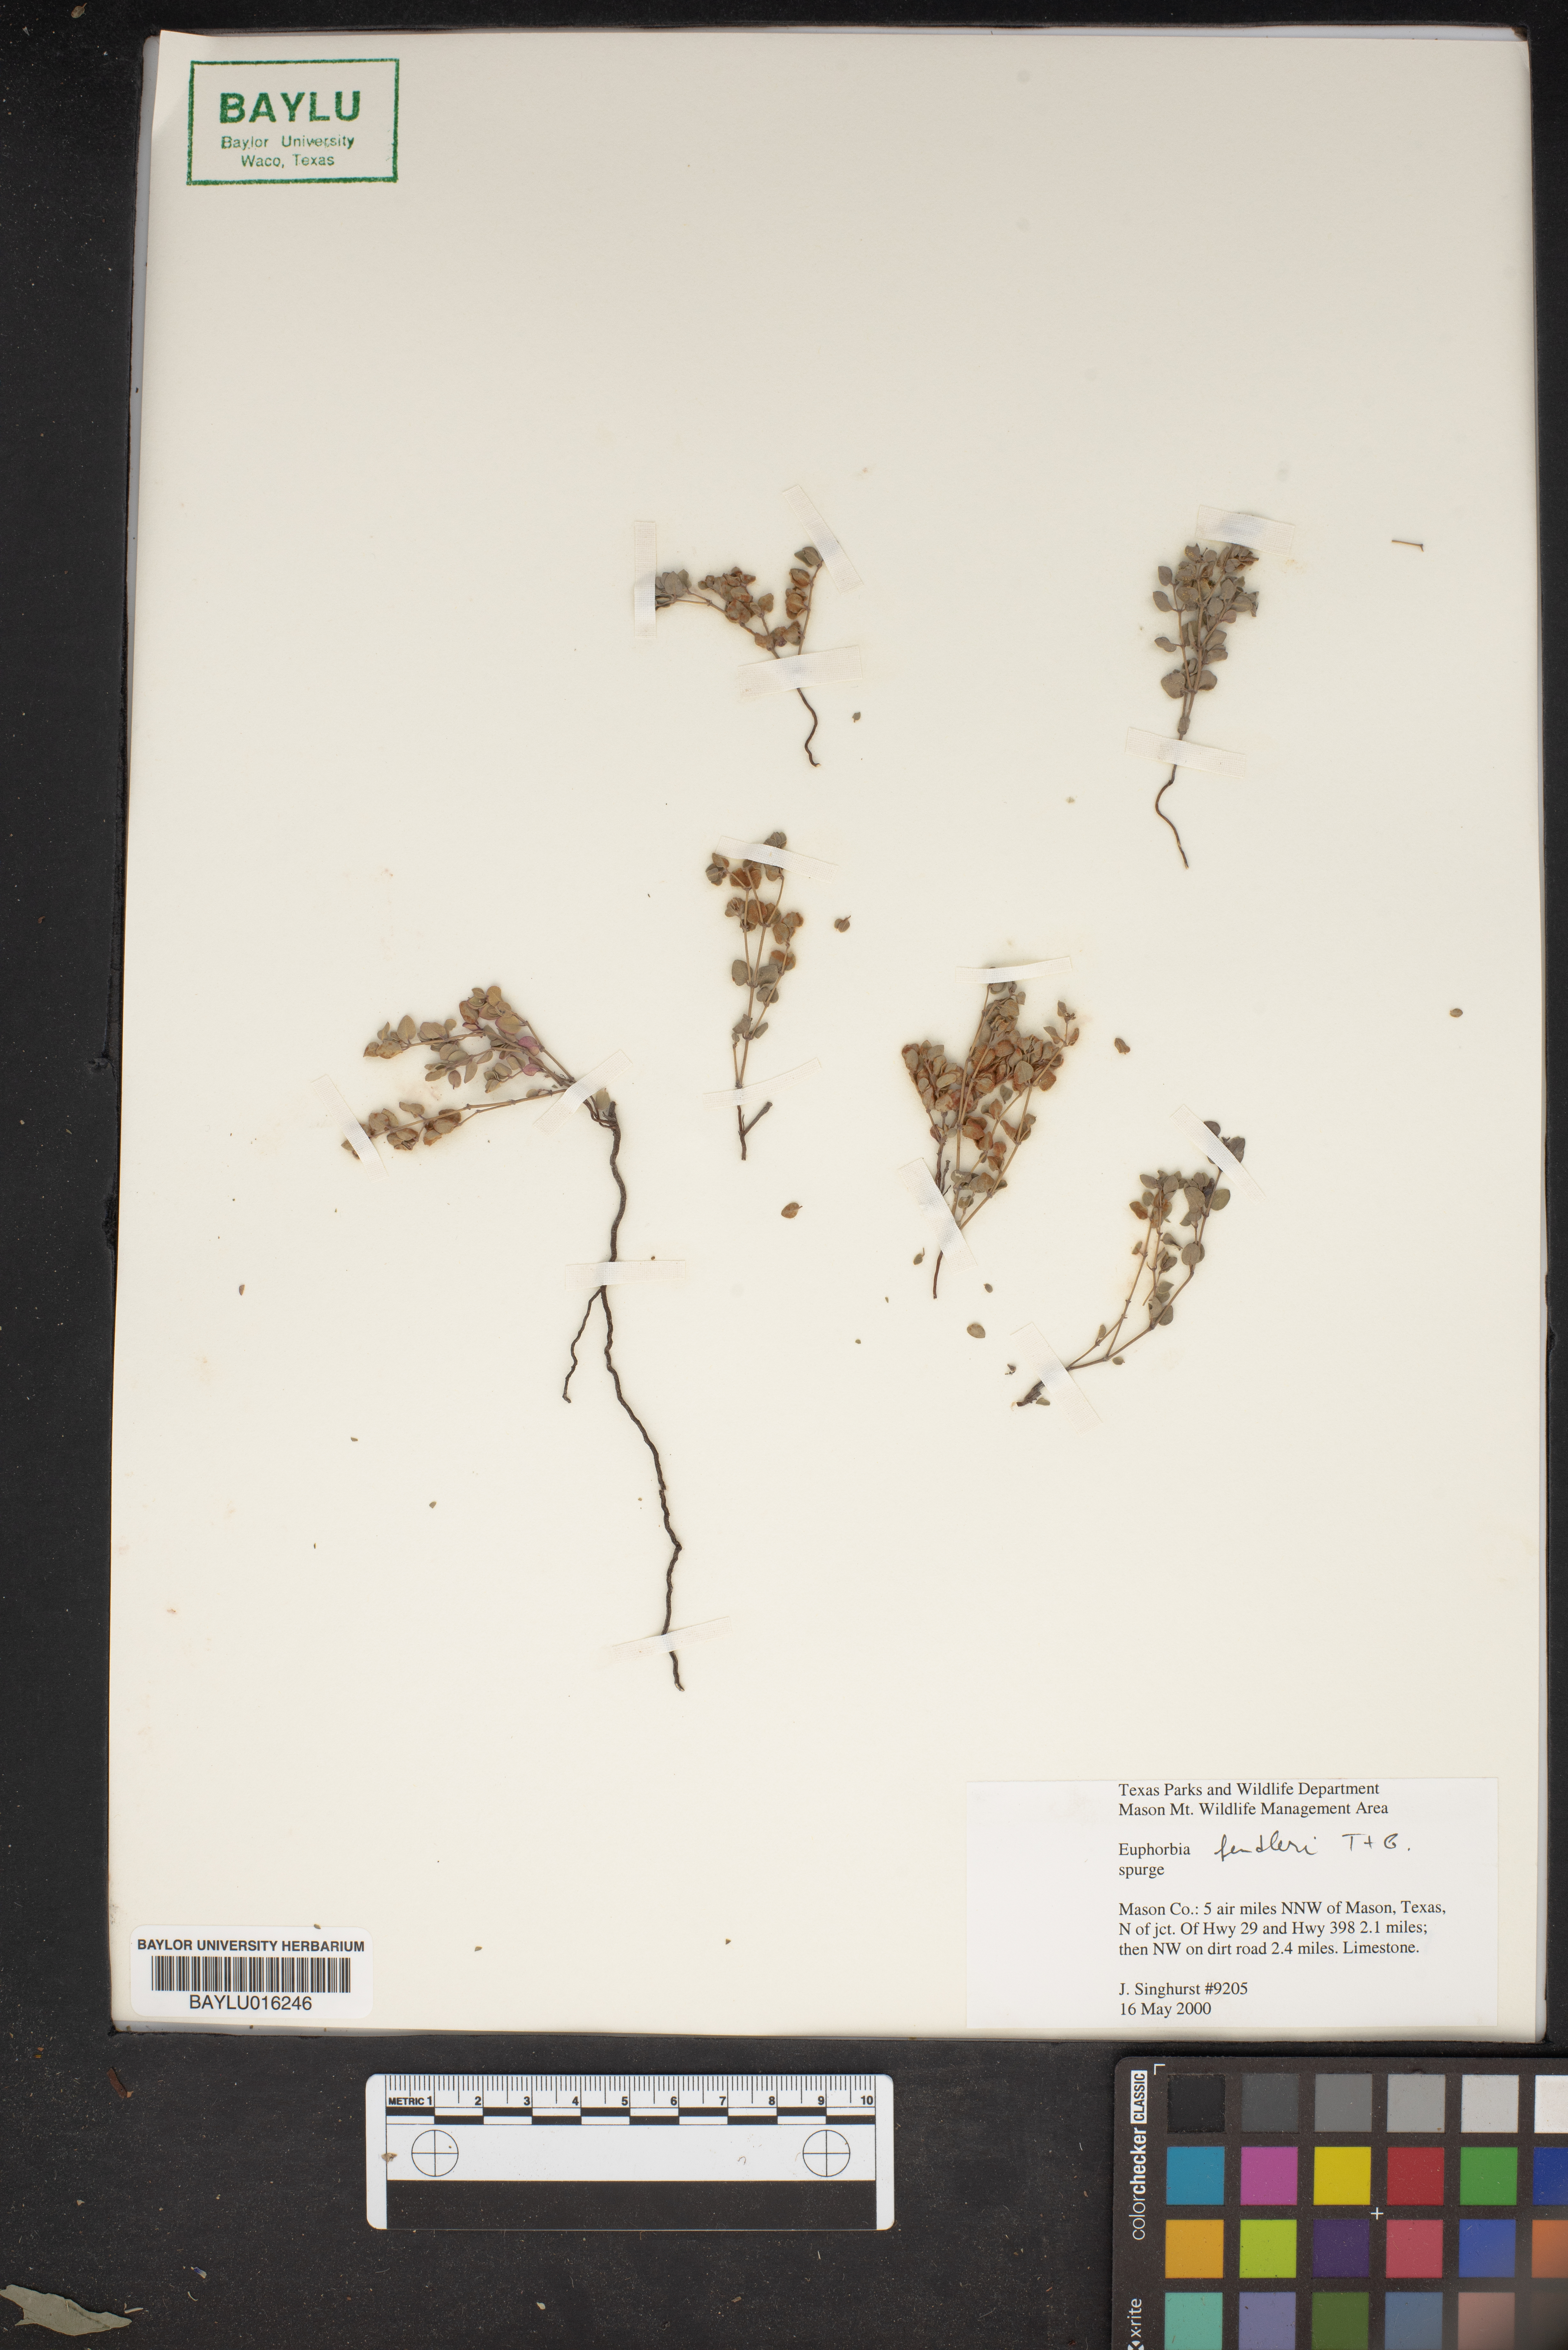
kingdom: Plantae
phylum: Tracheophyta
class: Magnoliopsida
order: Malpighiales
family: Euphorbiaceae
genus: Euphorbia
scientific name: Euphorbia fendleri
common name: Fendler's euphorbia
